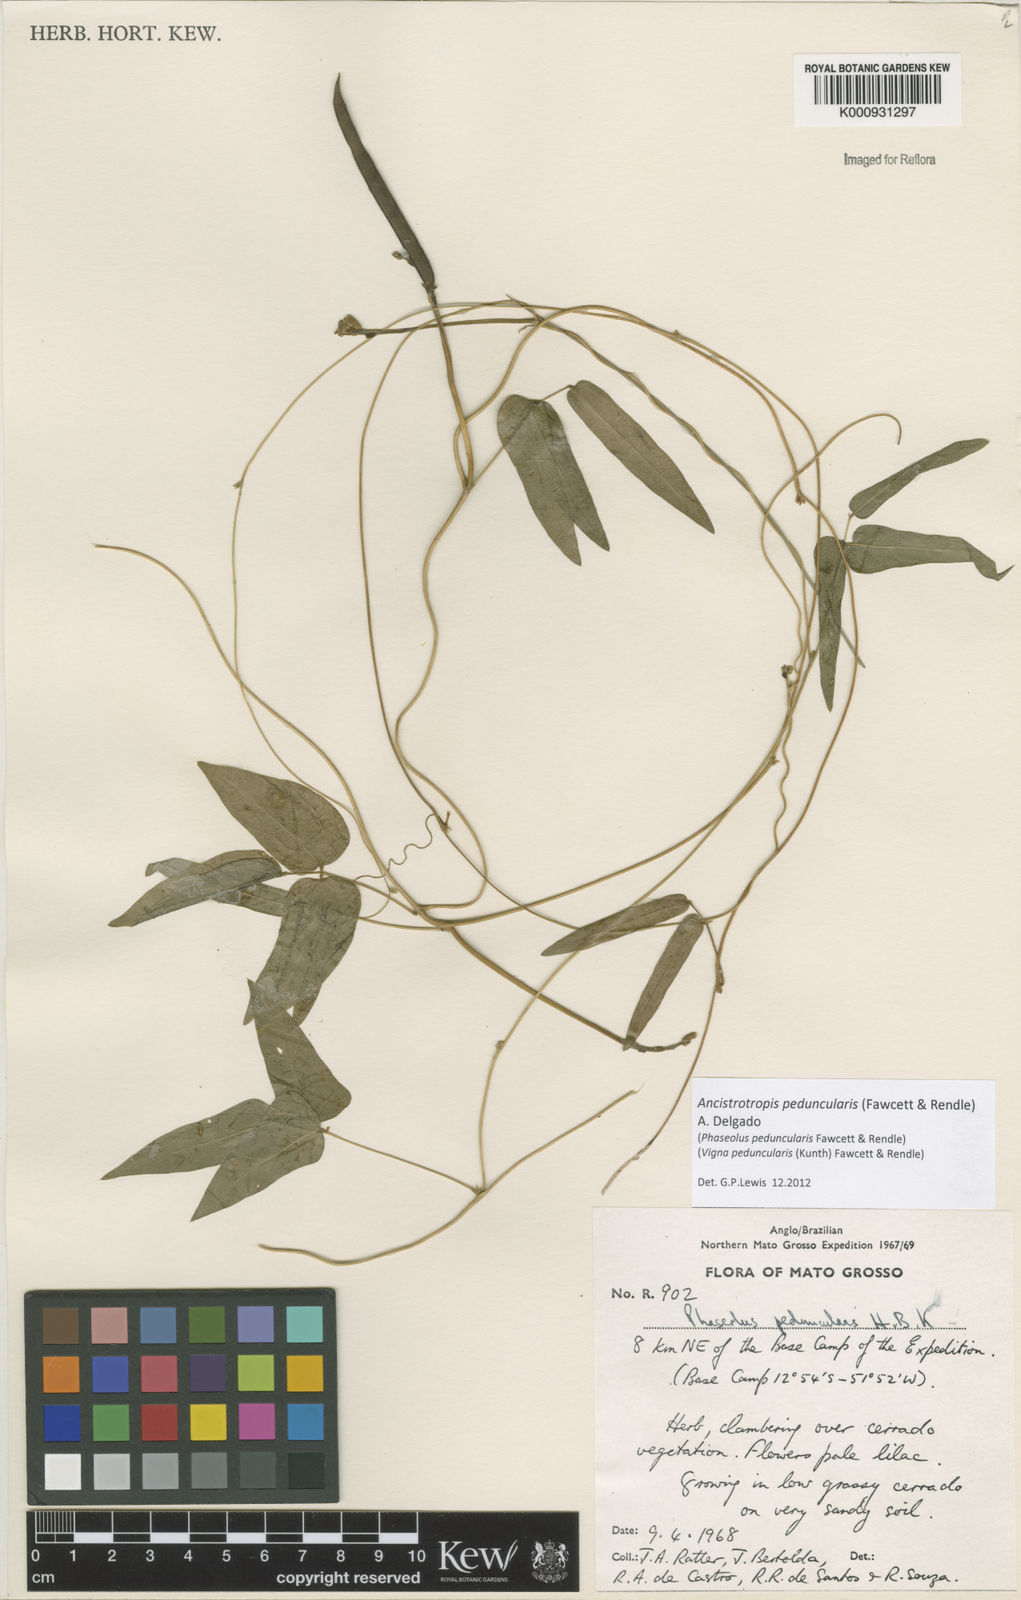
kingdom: Plantae
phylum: Tracheophyta
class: Magnoliopsida
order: Fabales
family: Fabaceae
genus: Ancistrotropis
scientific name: Ancistrotropis peduncularis
